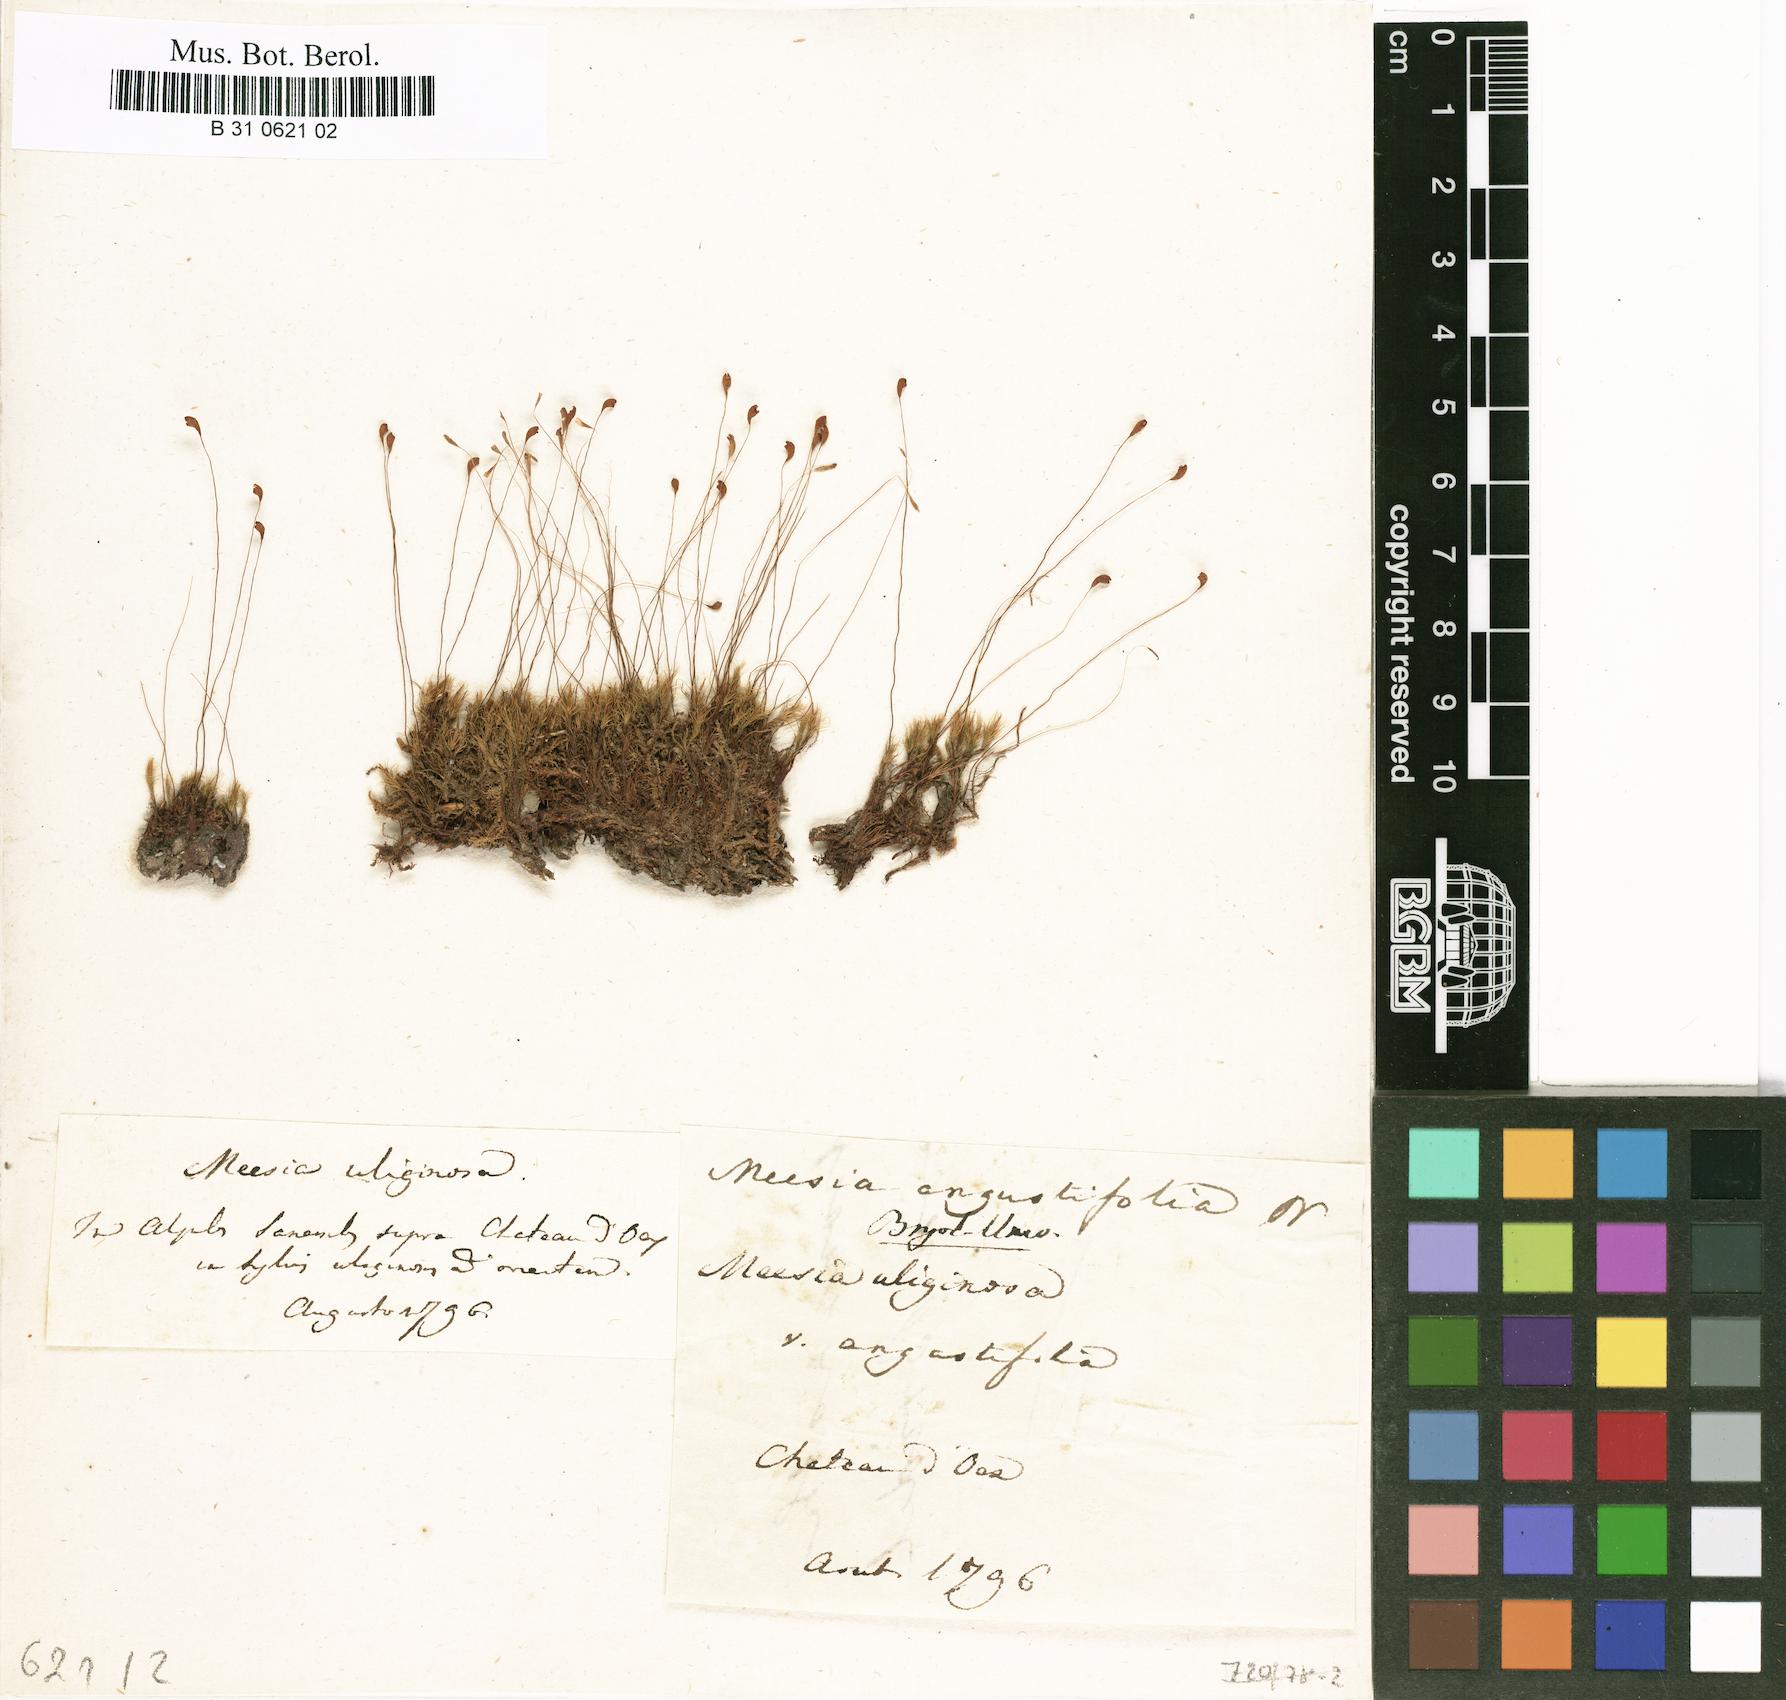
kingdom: Plantae
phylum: Bryophyta
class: Bryopsida
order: Splachnales
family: Meesiaceae
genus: Meesia
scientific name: Meesia minor
